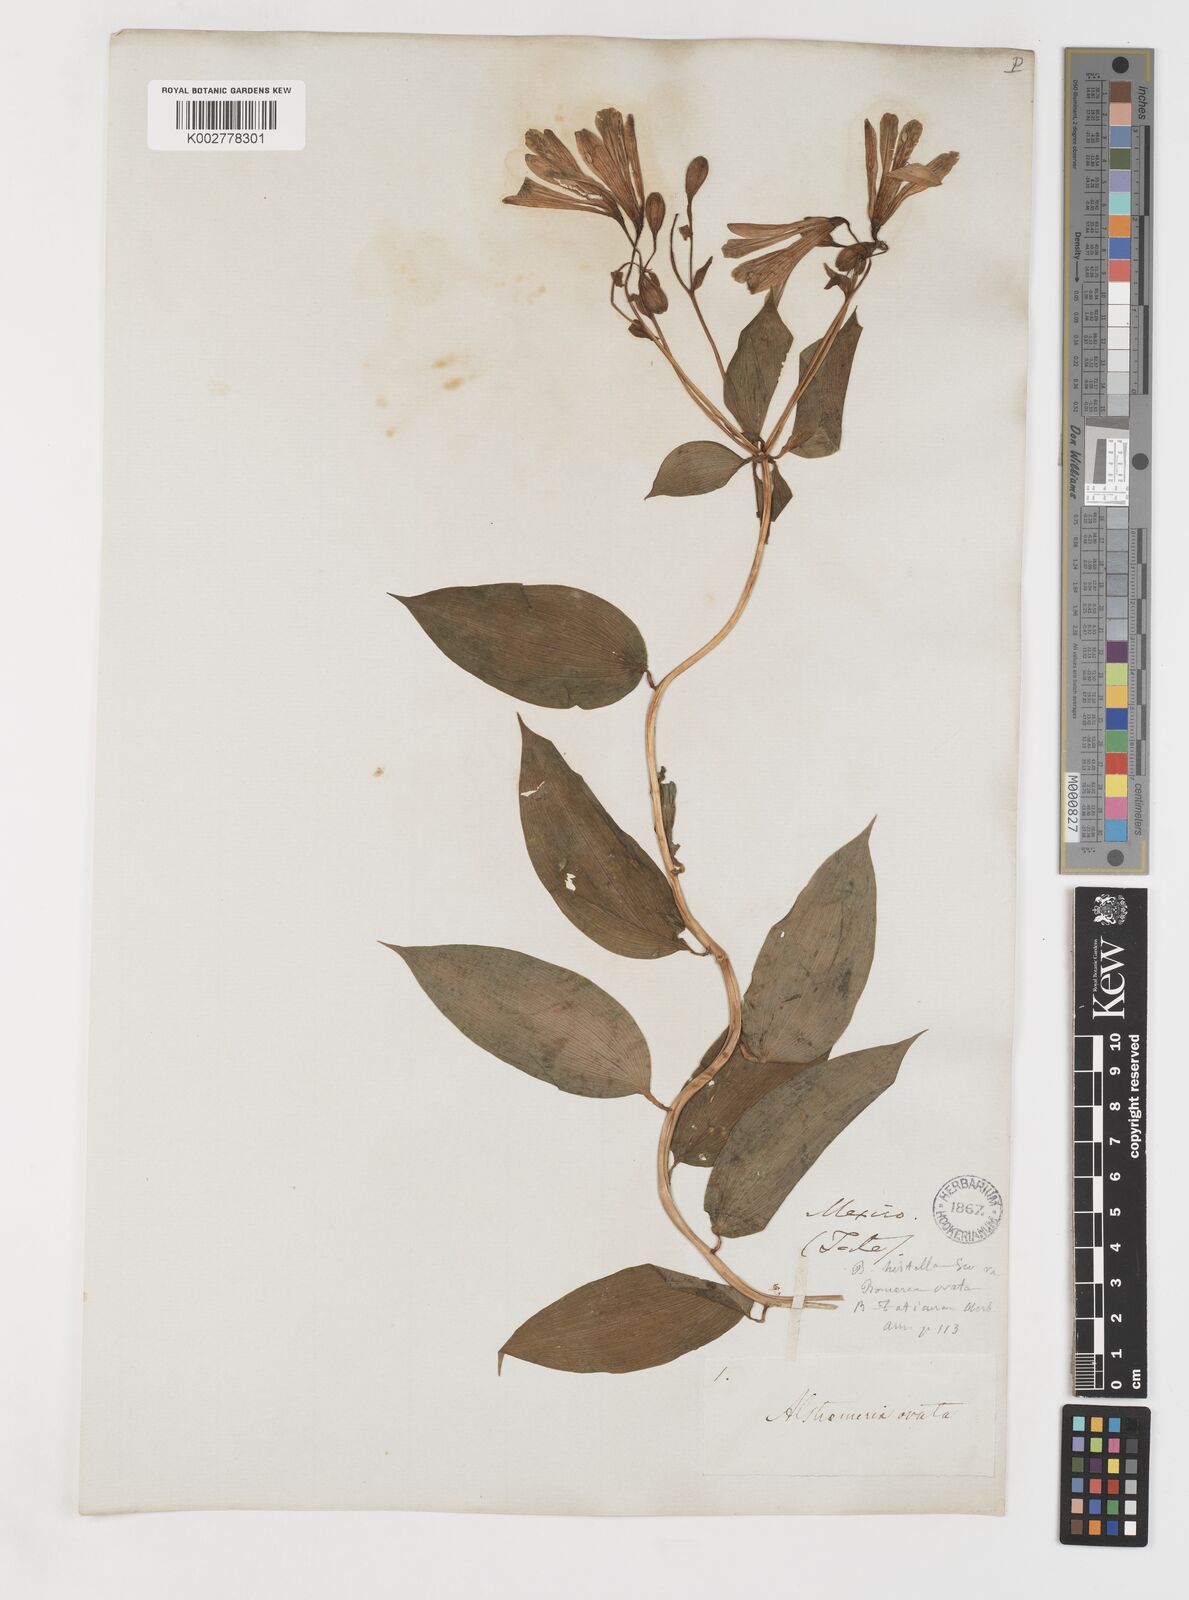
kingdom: Plantae
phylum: Tracheophyta
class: Liliopsida
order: Liliales
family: Alstroemeriaceae
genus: Bomarea
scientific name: Bomarea edulis
